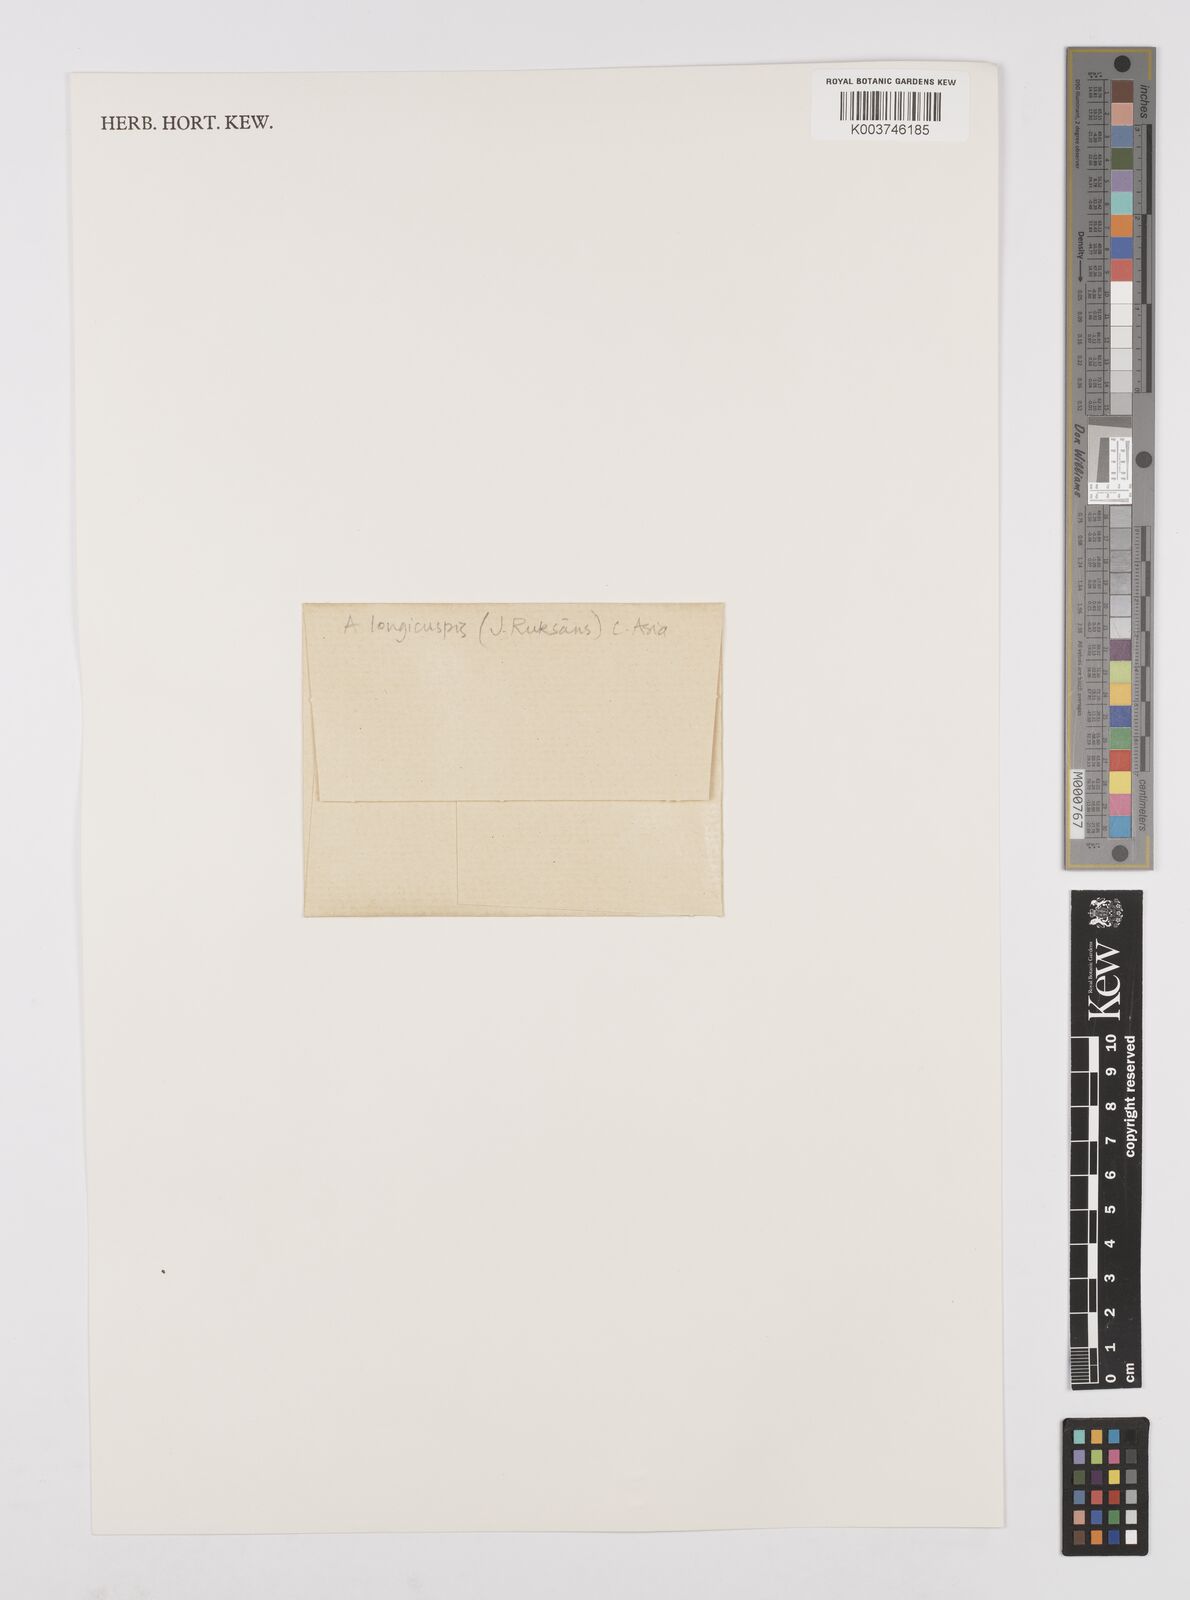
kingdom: Plantae
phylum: Tracheophyta
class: Liliopsida
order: Asparagales
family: Amaryllidaceae
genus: Allium
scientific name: Allium sativum
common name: Garlic
